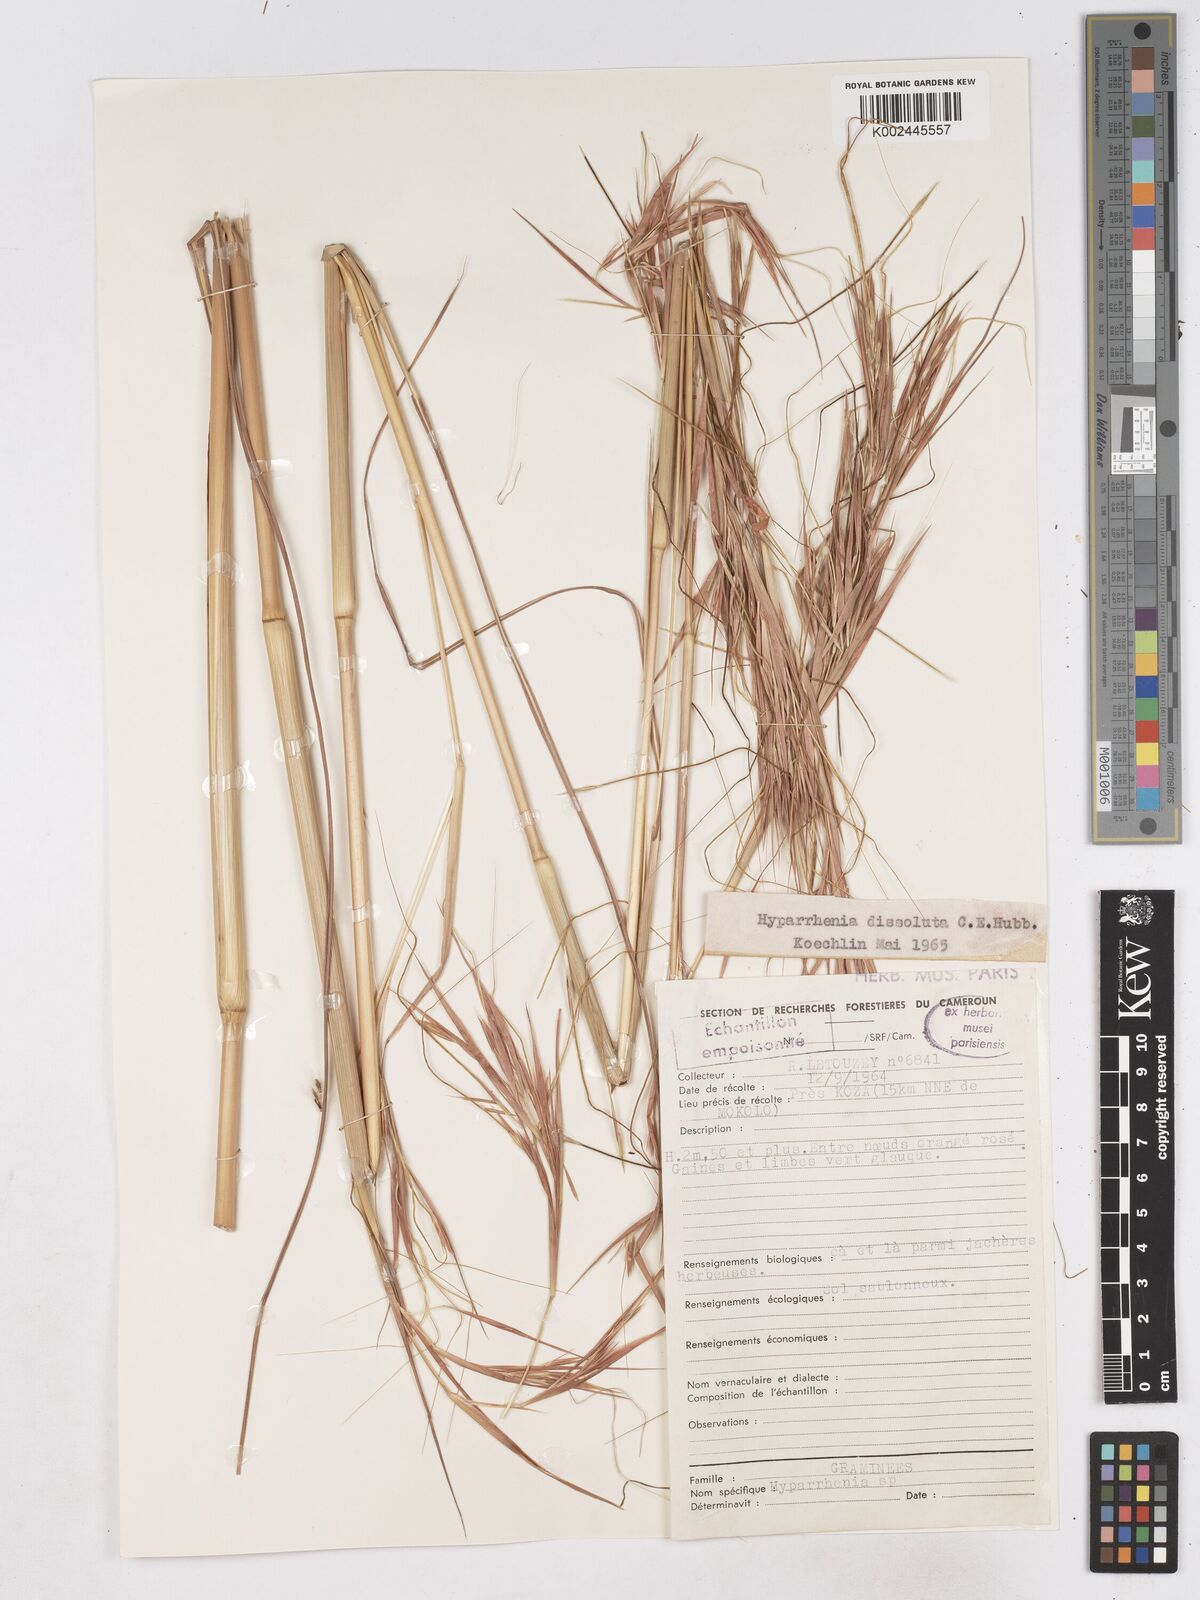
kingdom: Plantae
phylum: Tracheophyta
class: Liliopsida
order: Poales
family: Poaceae
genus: Hyperthelia
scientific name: Hyperthelia dissoluta
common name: Yellow thatching grass
